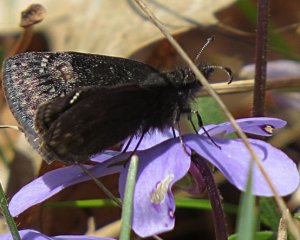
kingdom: Animalia
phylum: Arthropoda
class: Insecta
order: Lepidoptera
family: Hesperiidae
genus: Gesta
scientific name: Gesta
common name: Persius Duskywing
